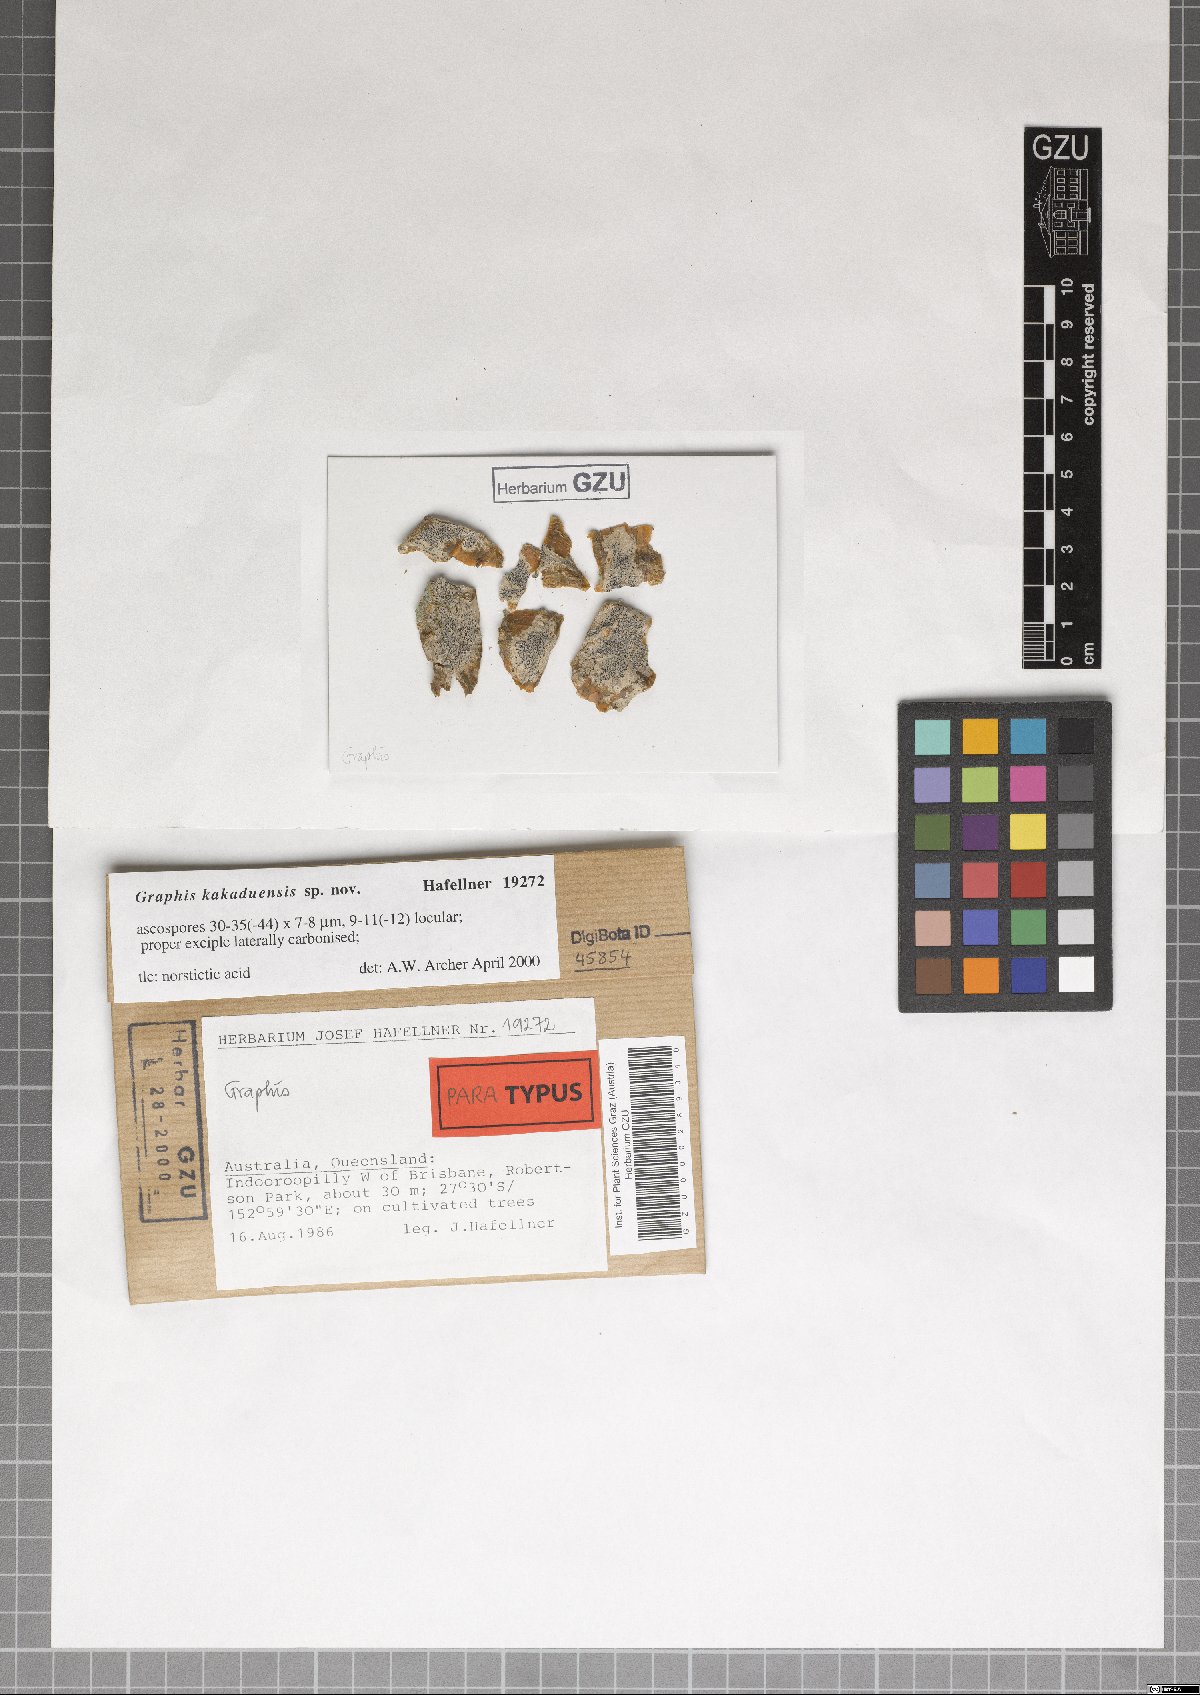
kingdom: Fungi
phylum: Ascomycota
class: Lecanoromycetes
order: Ostropales
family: Graphidaceae
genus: Graphis
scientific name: Graphis kakaduensis
